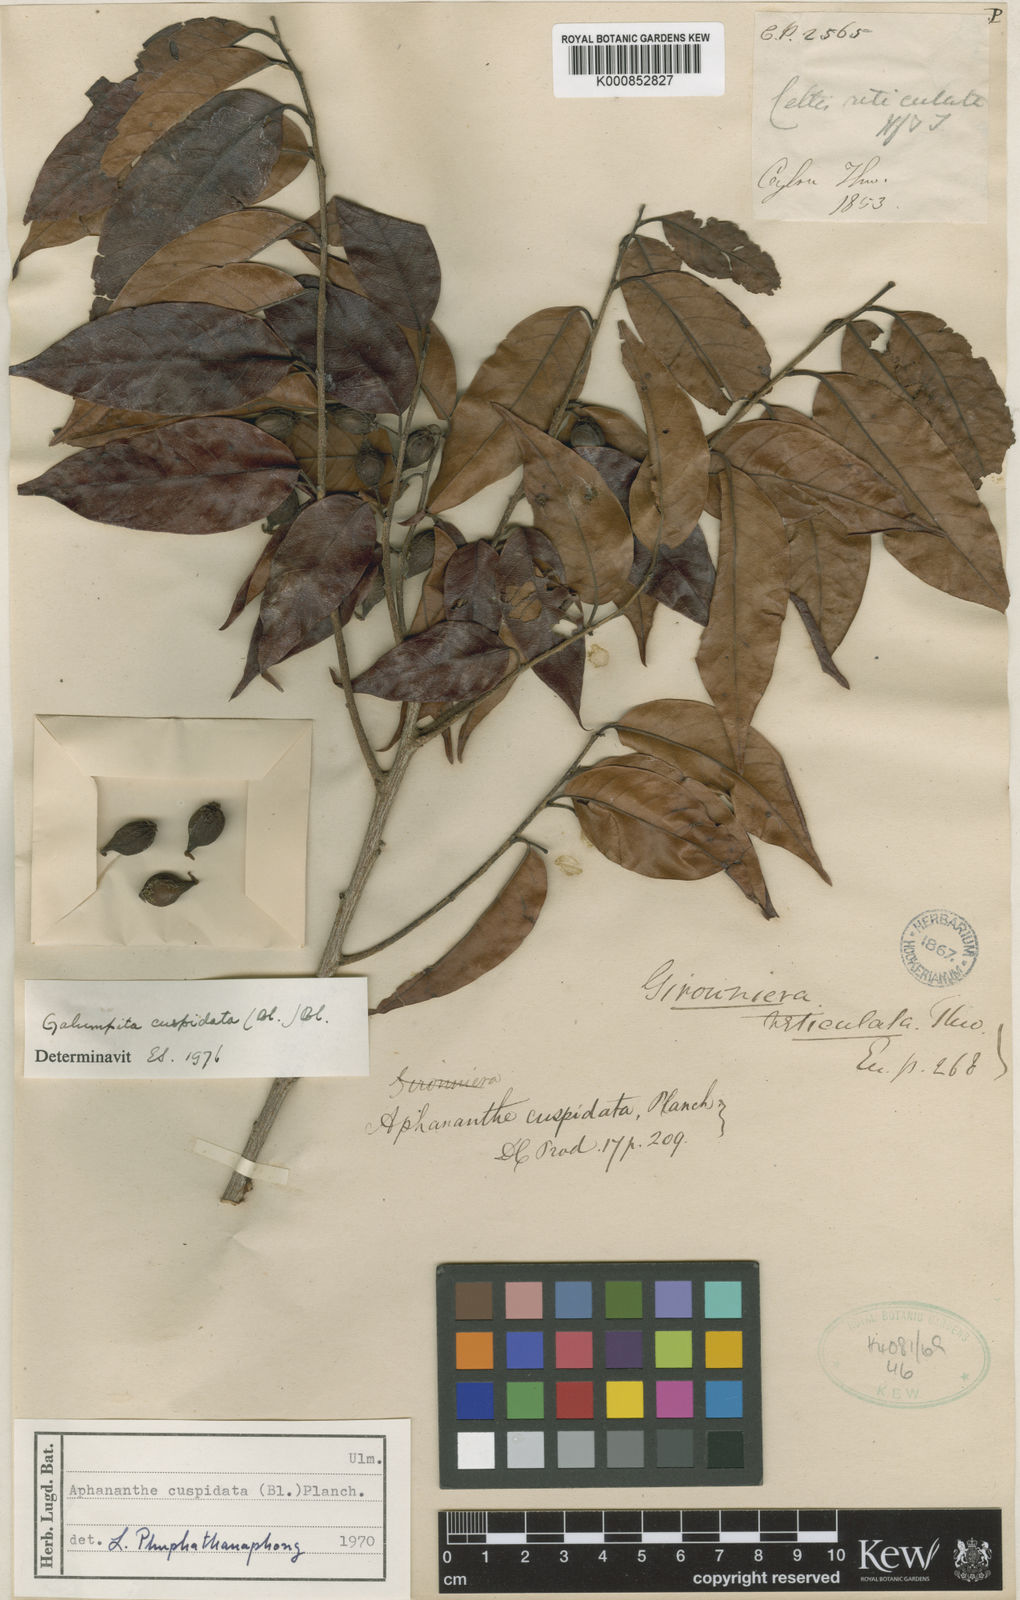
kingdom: Plantae
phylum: Tracheophyta
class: Magnoliopsida
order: Rosales
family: Cannabaceae
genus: Aphananthe
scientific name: Aphananthe cuspidata
